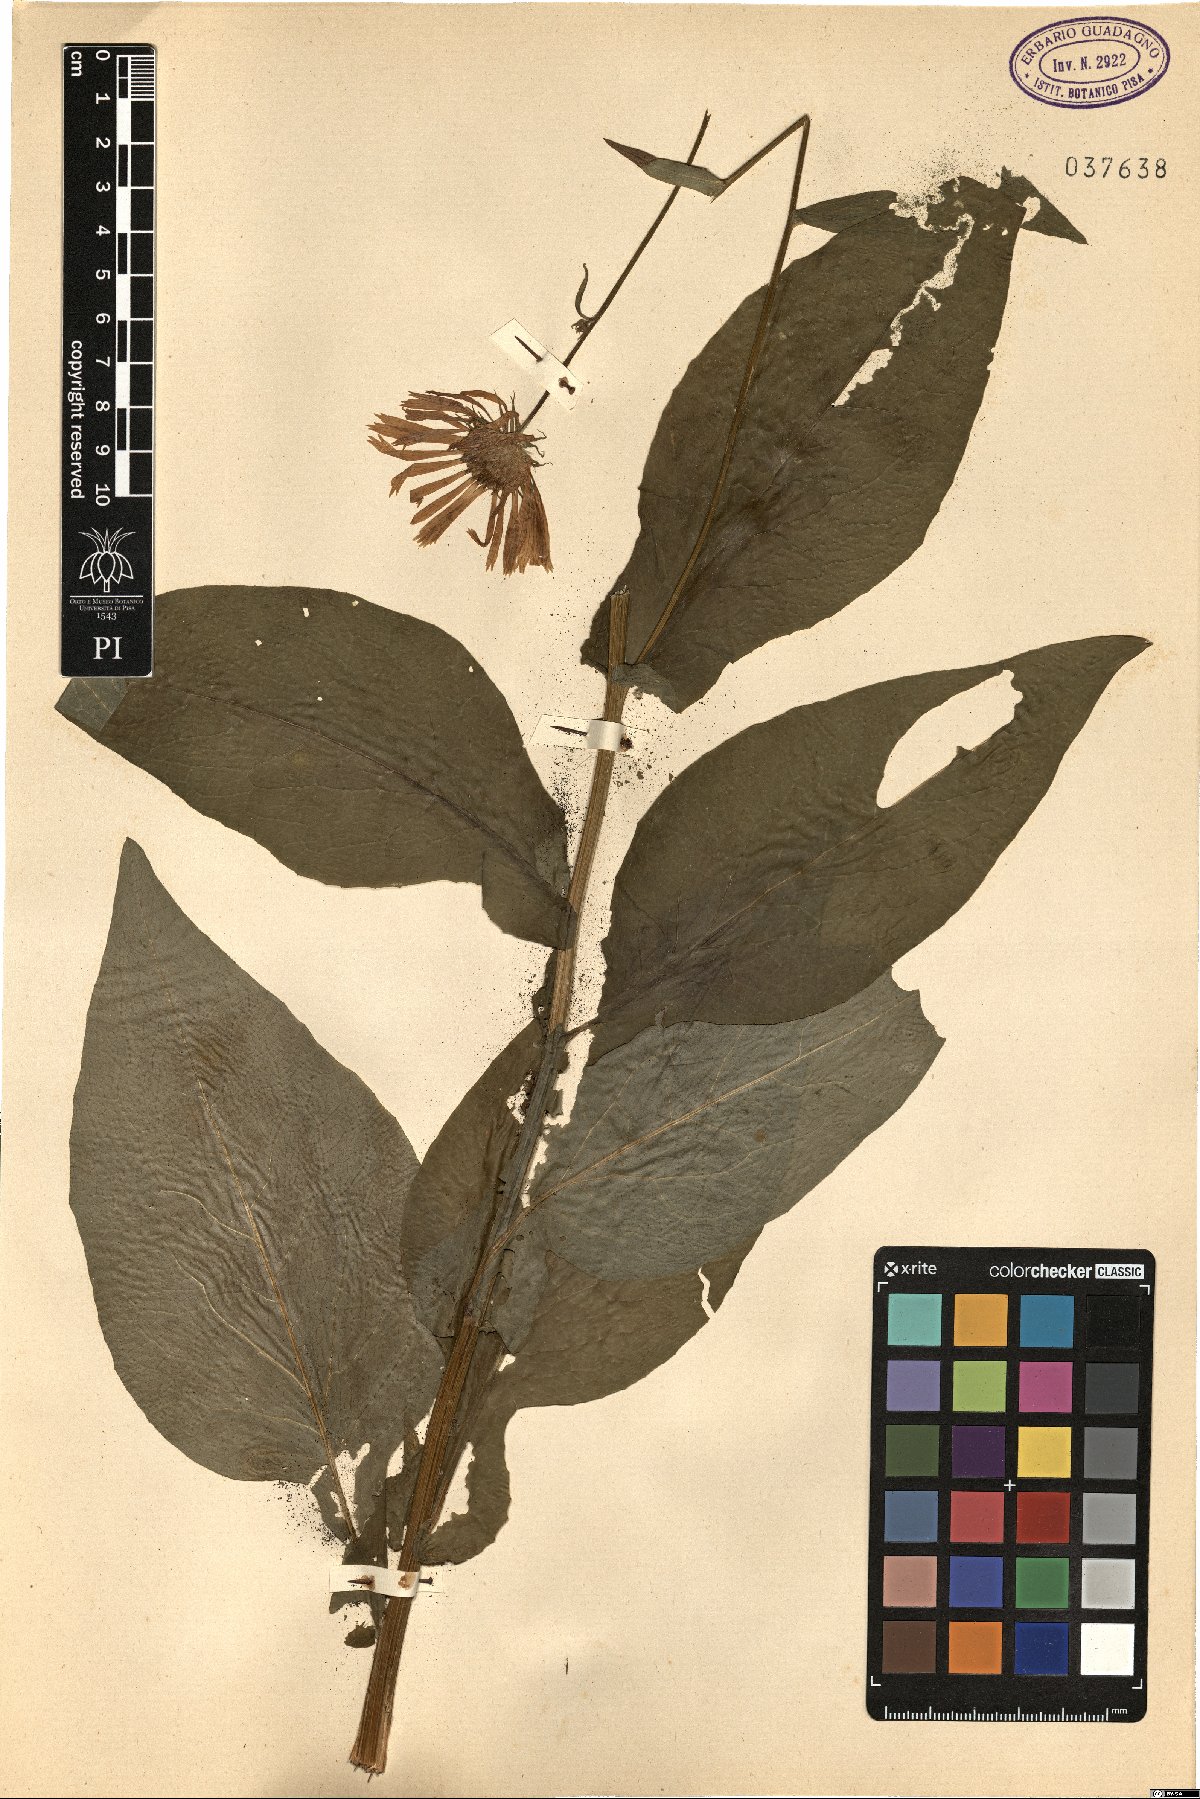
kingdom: Plantae
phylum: Tracheophyta
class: Magnoliopsida
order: Asterales
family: Asteraceae
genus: Doronicum
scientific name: Doronicum
